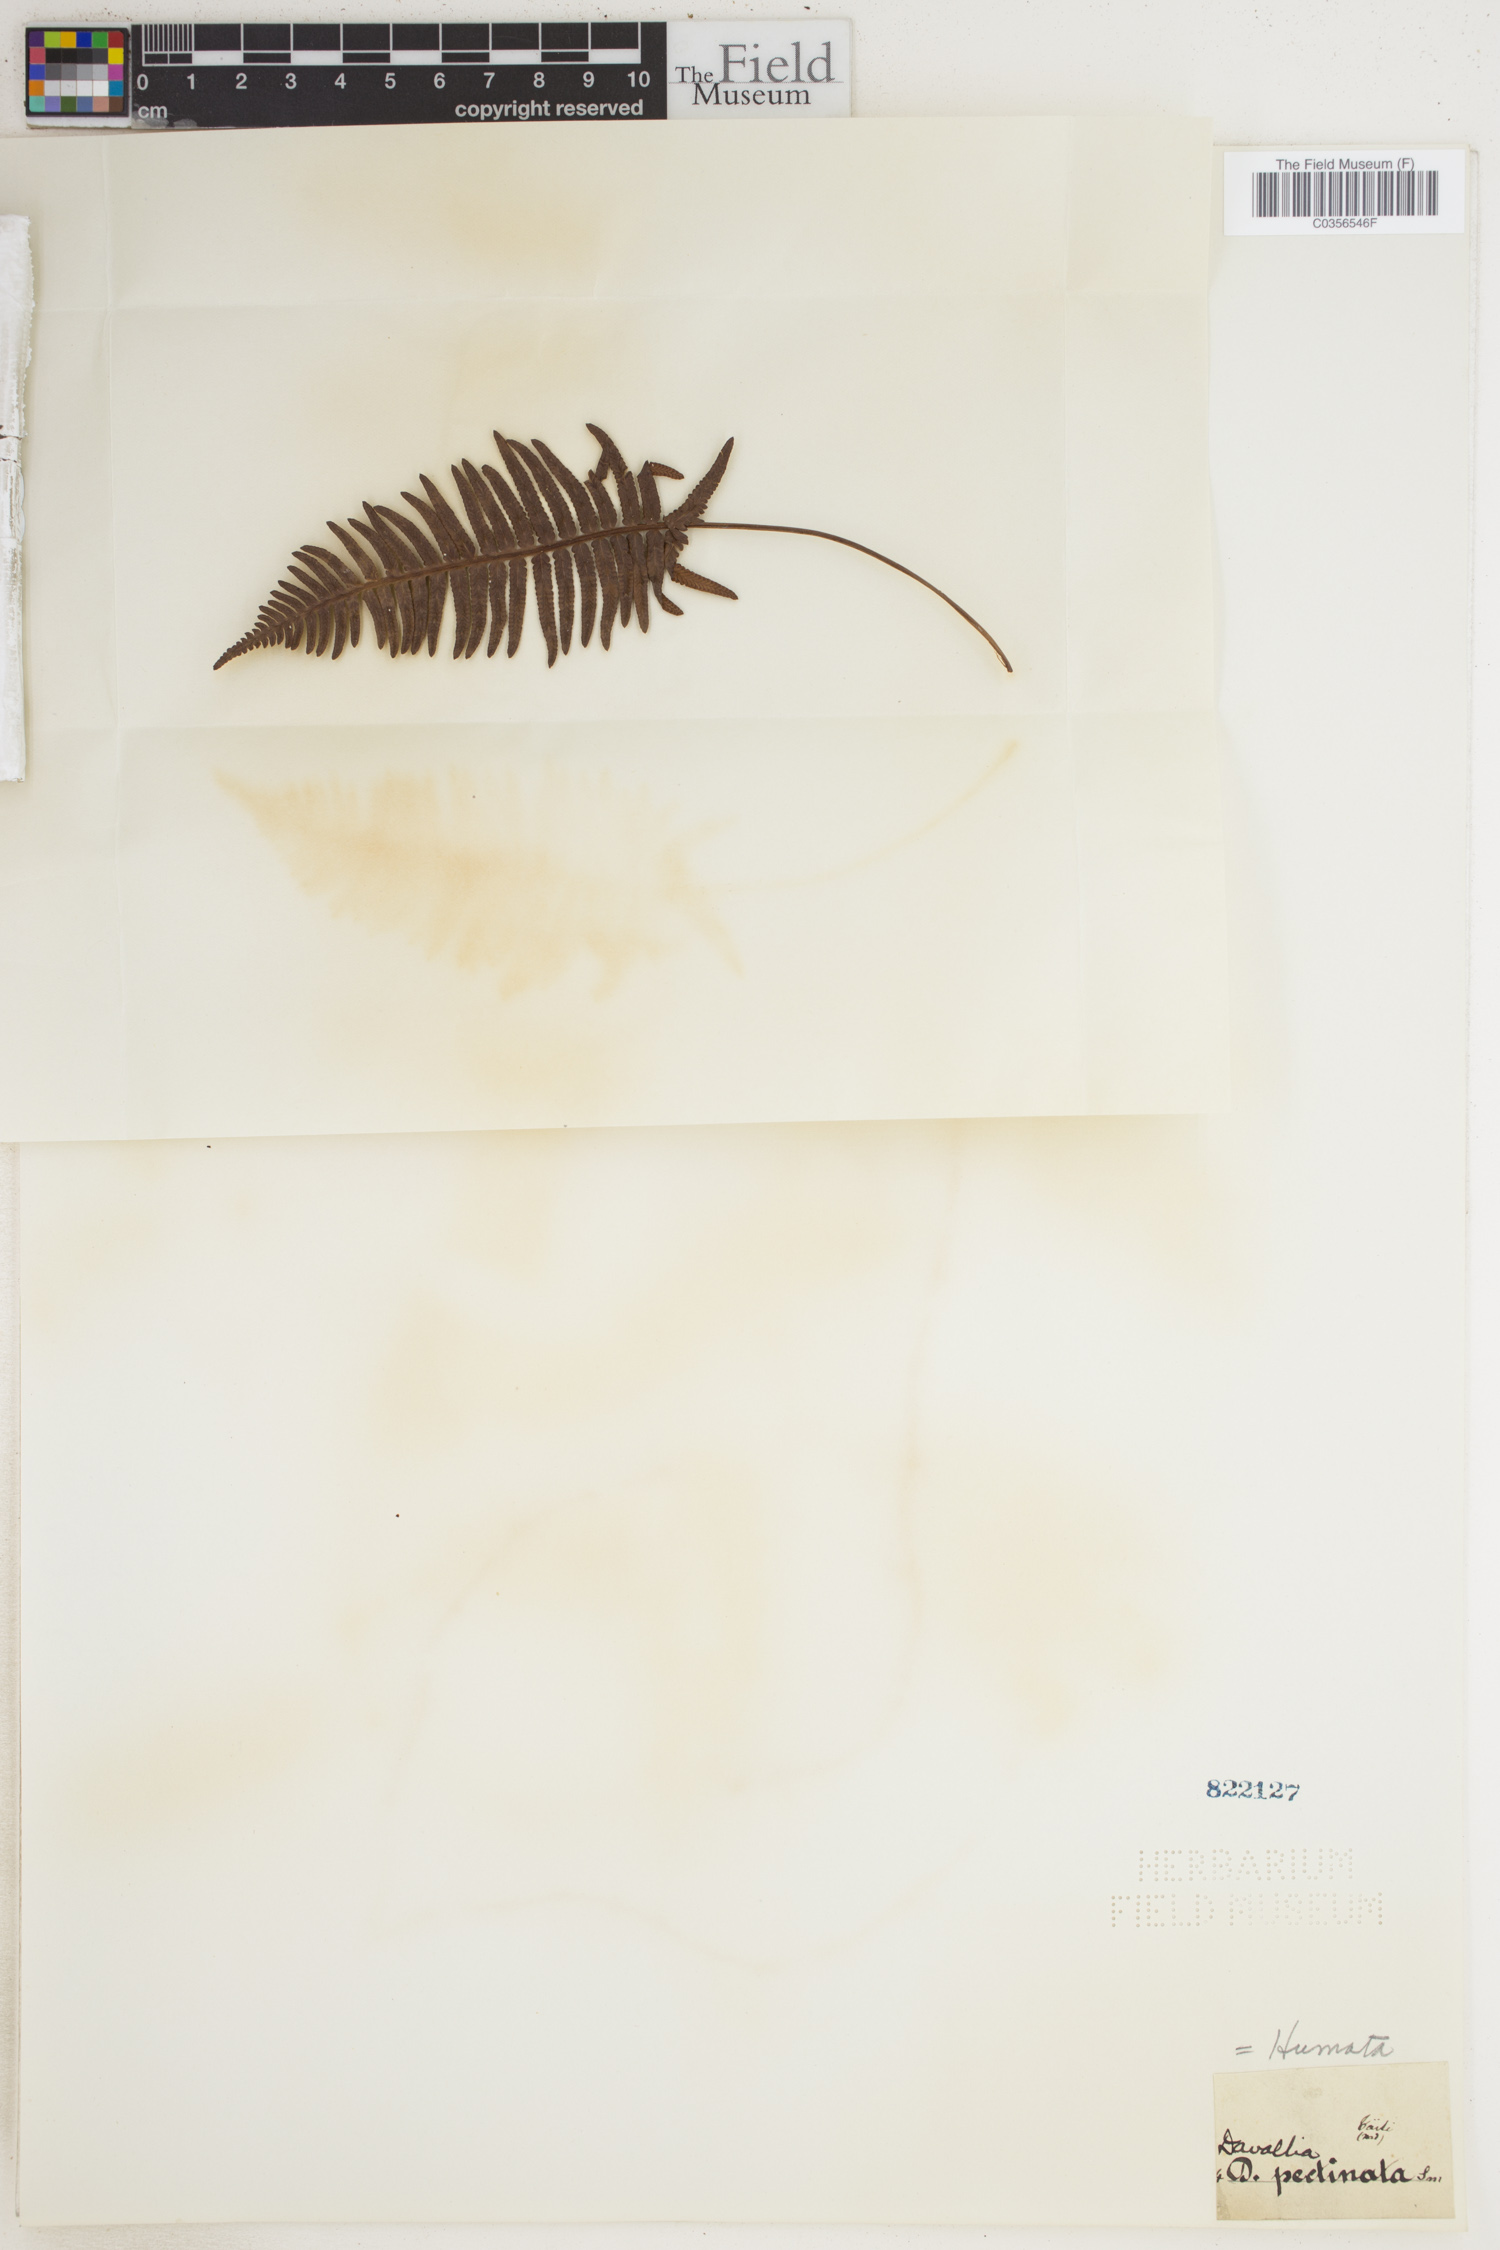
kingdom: Plantae
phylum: Tracheophyta
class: Polypodiopsida
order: Polypodiales
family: Davalliaceae
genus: Davallia
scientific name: Davallia pectinata
